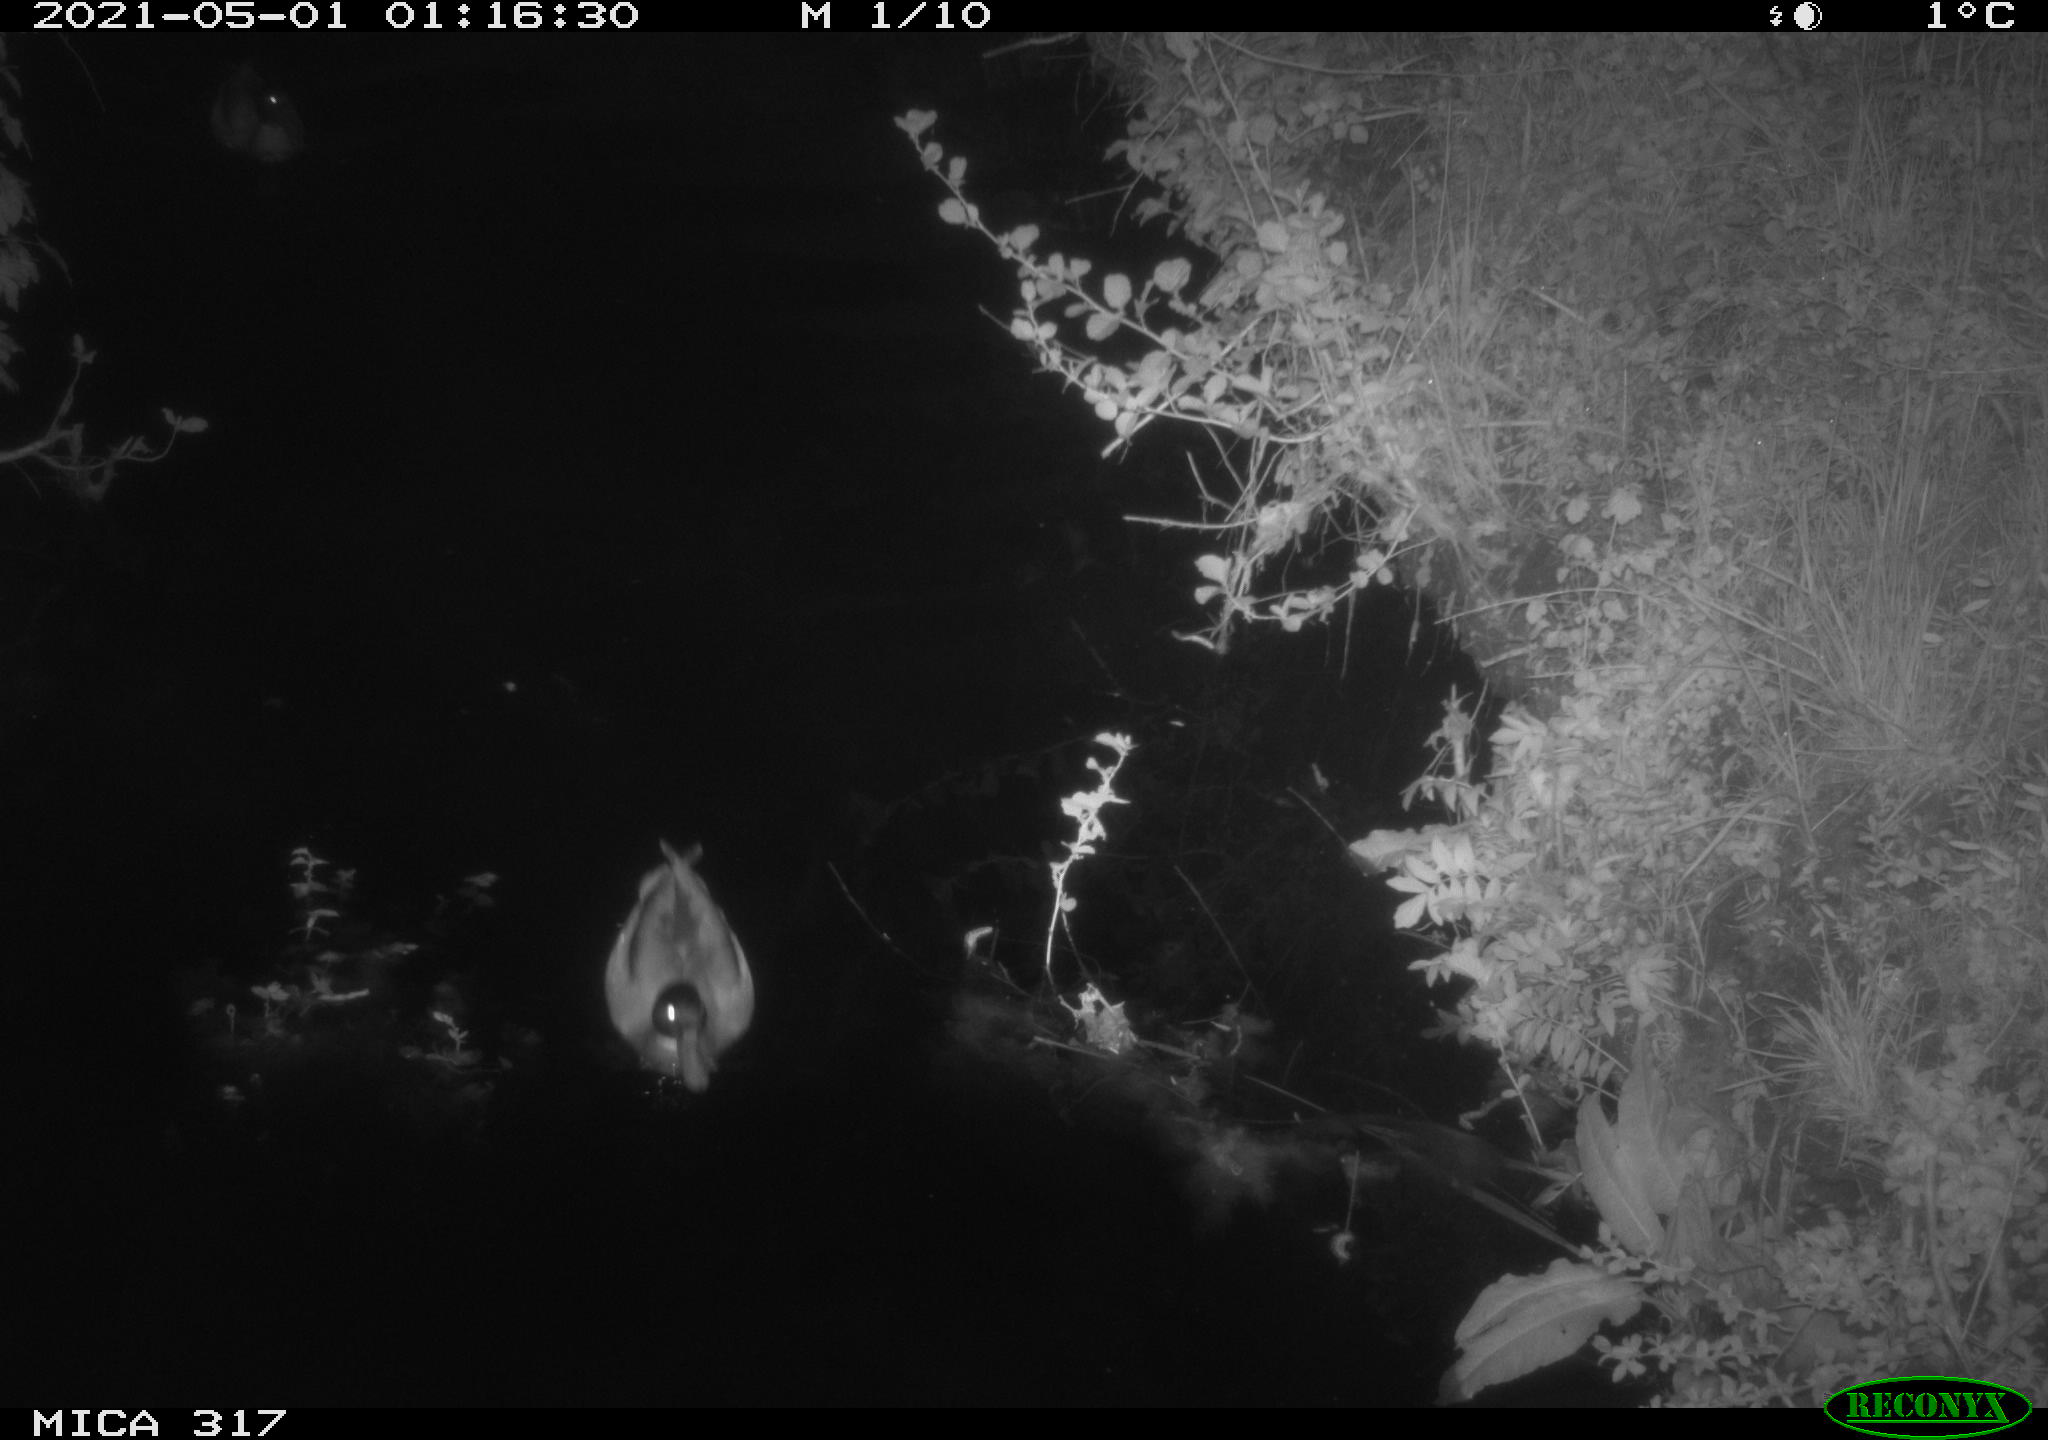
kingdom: Animalia
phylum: Chordata
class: Aves
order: Anseriformes
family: Anatidae
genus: Anas
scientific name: Anas
